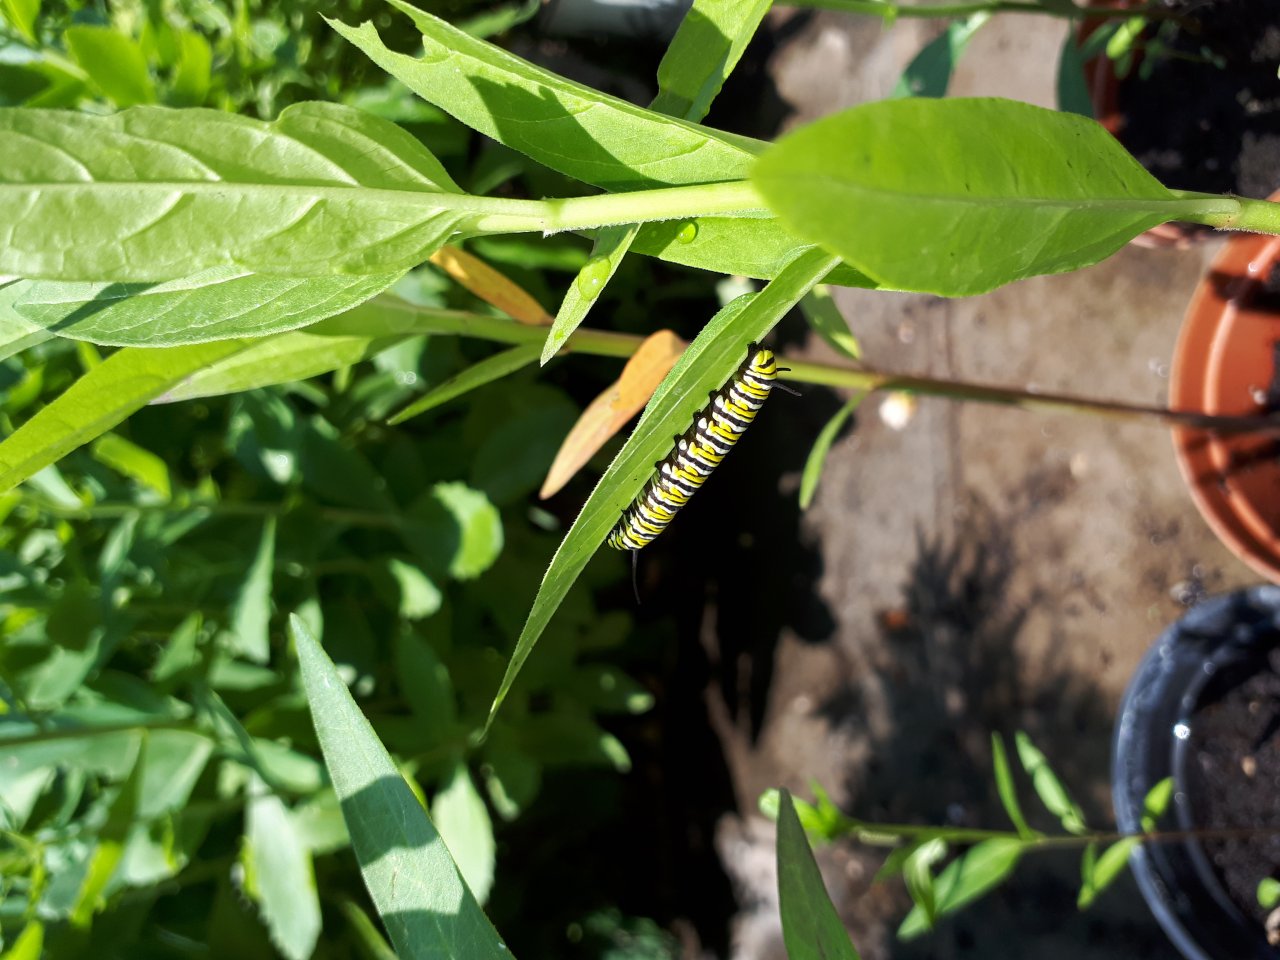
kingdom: Animalia
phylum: Arthropoda
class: Insecta
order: Lepidoptera
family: Nymphalidae
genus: Danaus
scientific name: Danaus plexippus
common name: Monarch
